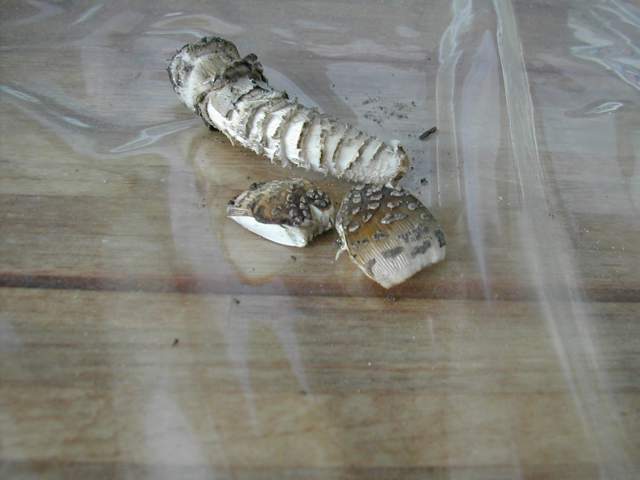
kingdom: Fungi
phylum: Basidiomycota
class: Agaricomycetes
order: Agaricales
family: Amanitaceae
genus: Amanita
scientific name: Amanita ceciliae
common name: stor kam-fluesvamp
